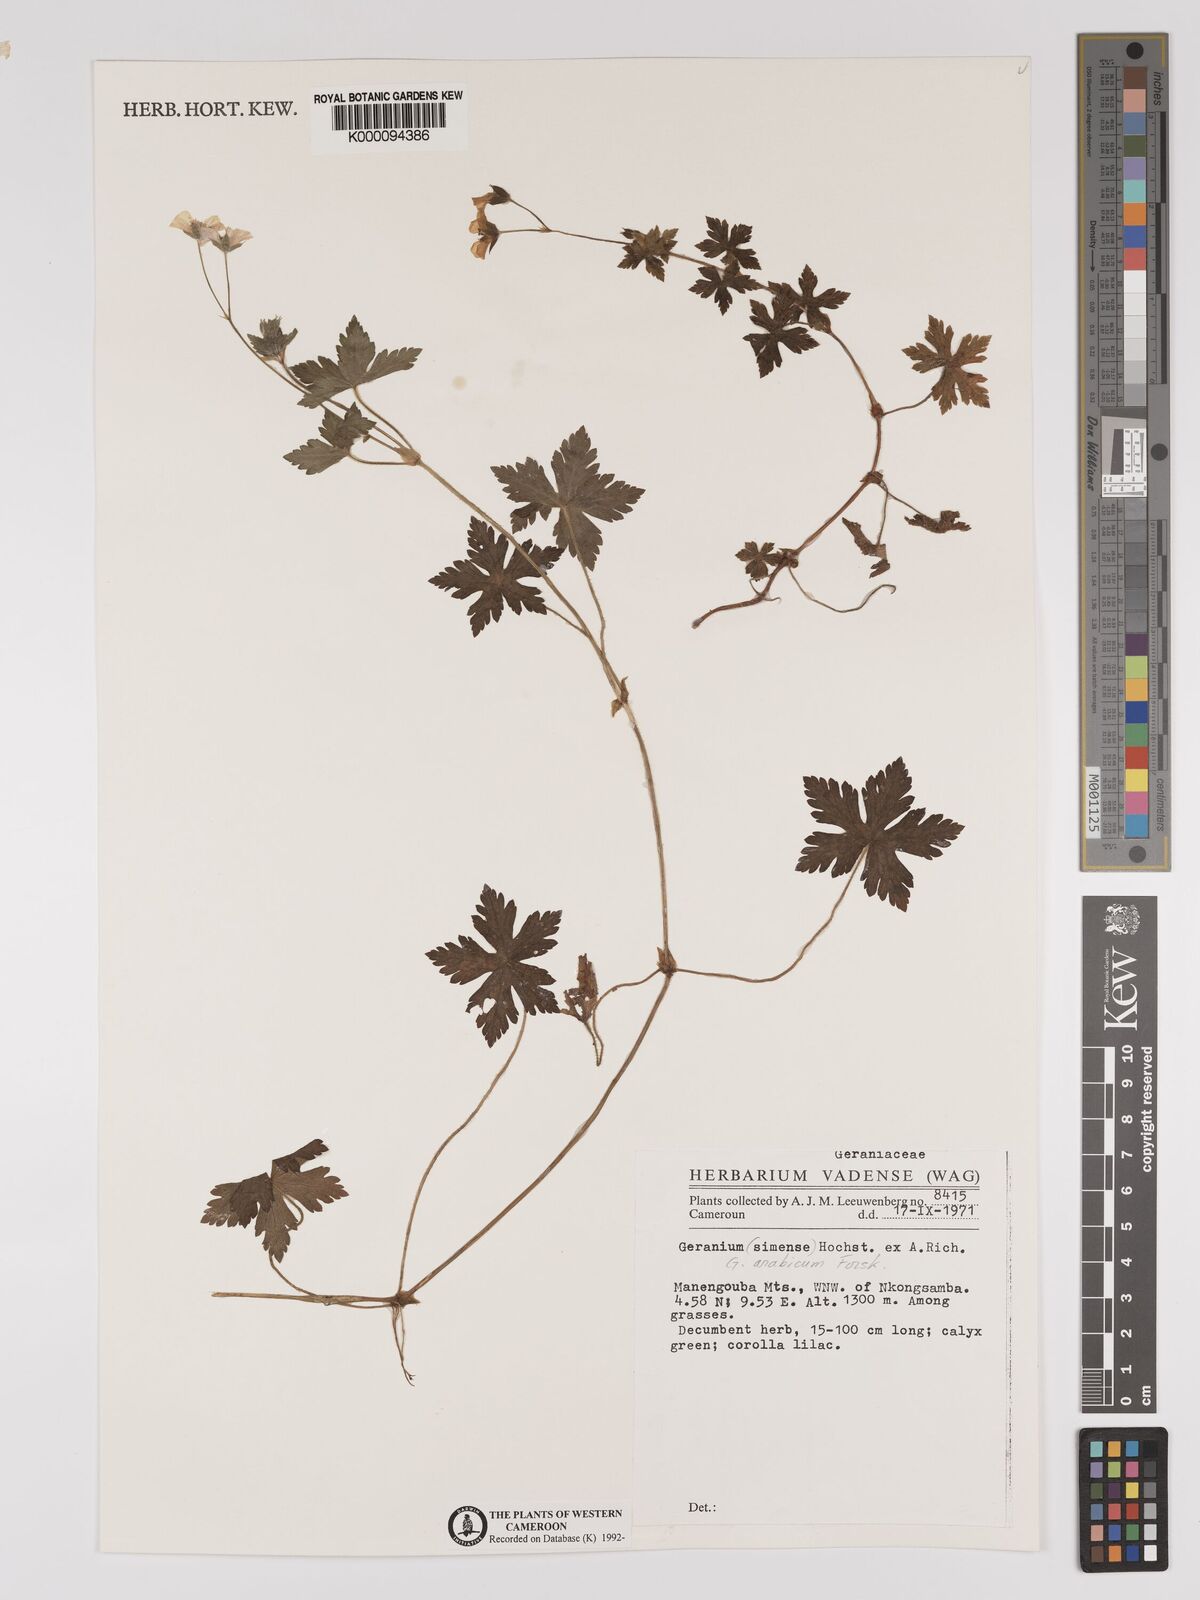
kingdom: Plantae
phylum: Tracheophyta
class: Magnoliopsida
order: Geraniales
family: Geraniaceae
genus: Geranium
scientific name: Geranium arabicum
